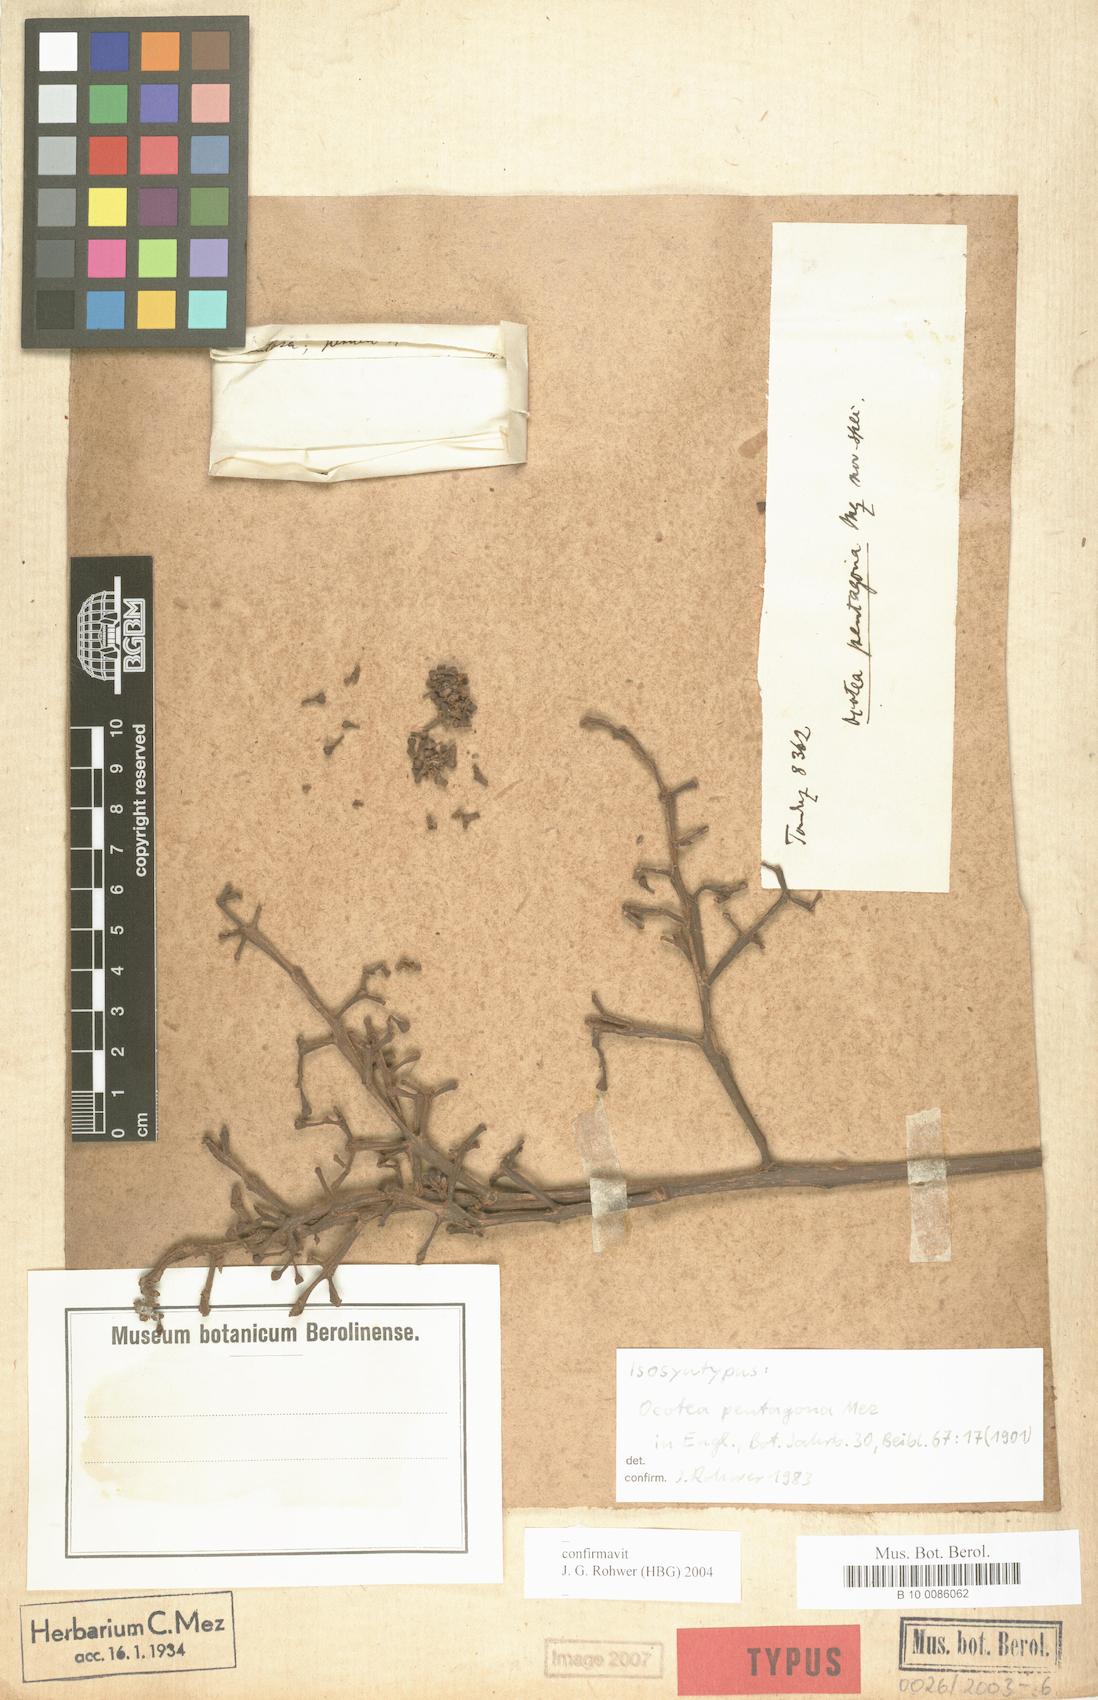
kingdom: Plantae
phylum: Tracheophyta
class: Magnoliopsida
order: Laurales
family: Lauraceae
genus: Ocotea
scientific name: Ocotea pentagona
